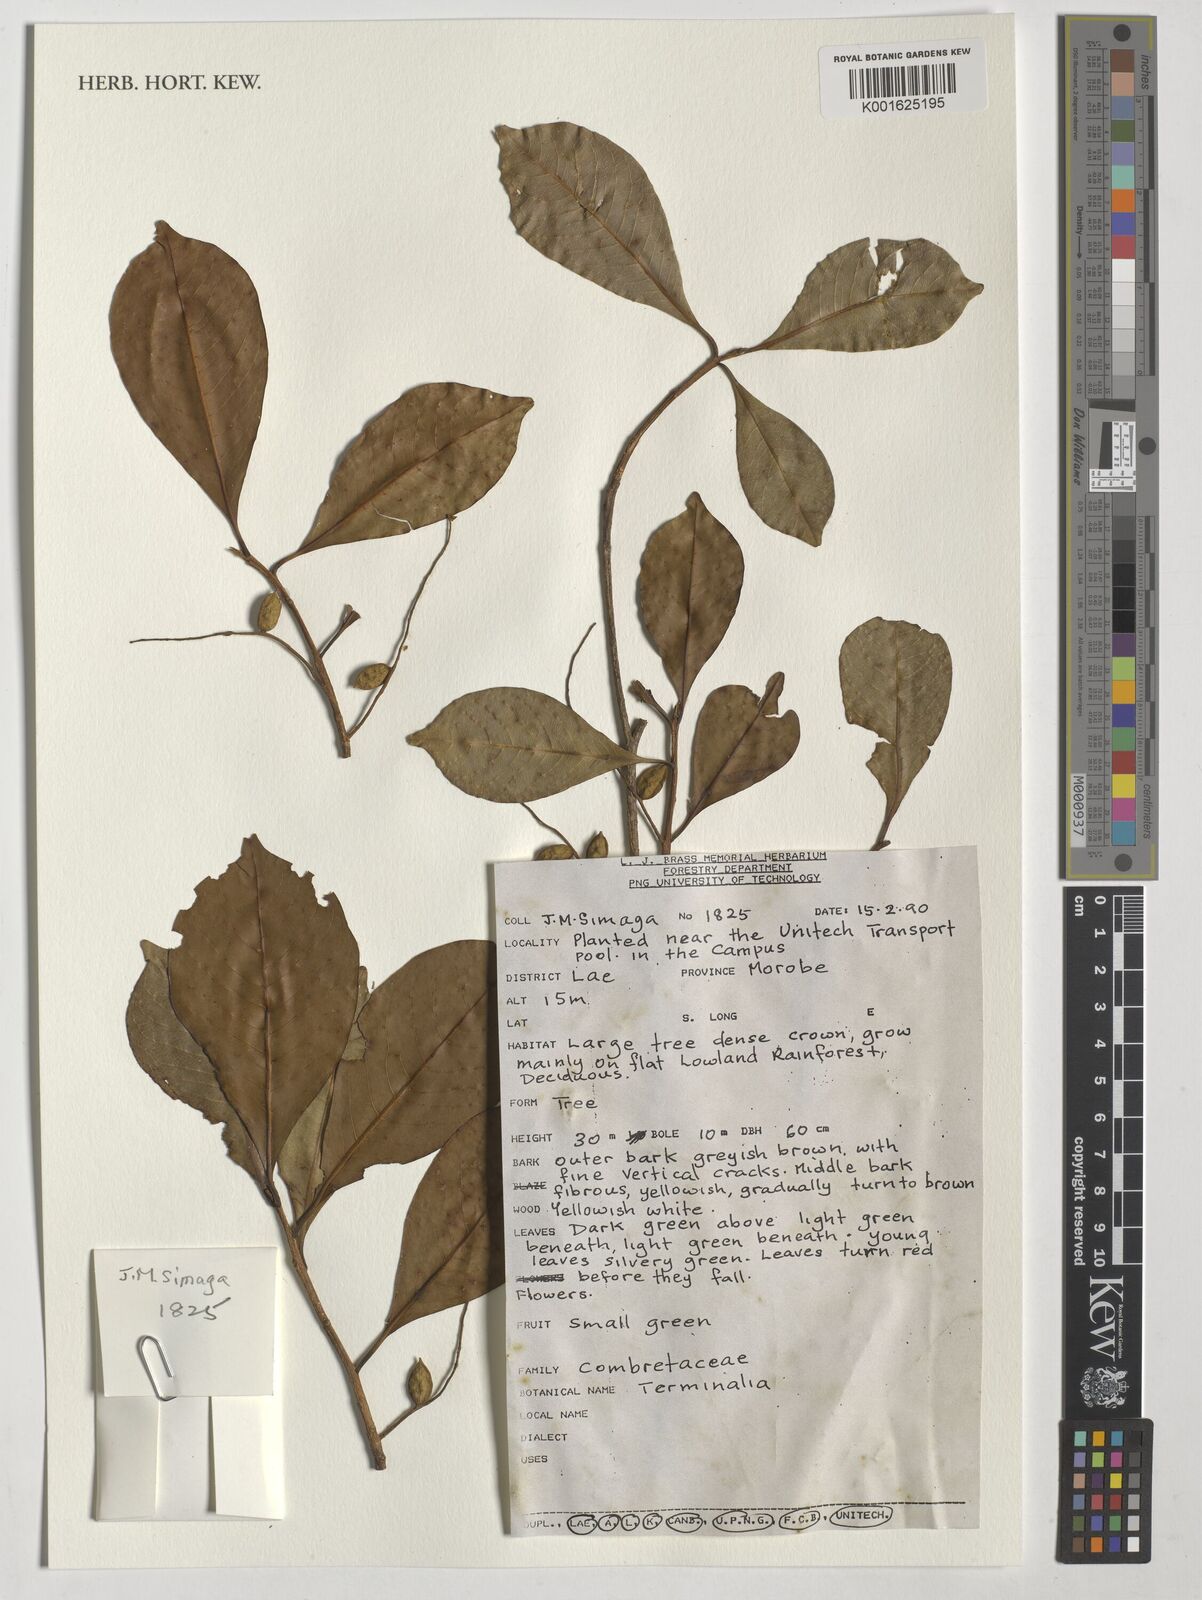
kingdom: Plantae
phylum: Tracheophyta
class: Magnoliopsida
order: Myrtales
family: Combretaceae
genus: Terminalia
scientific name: Terminalia
